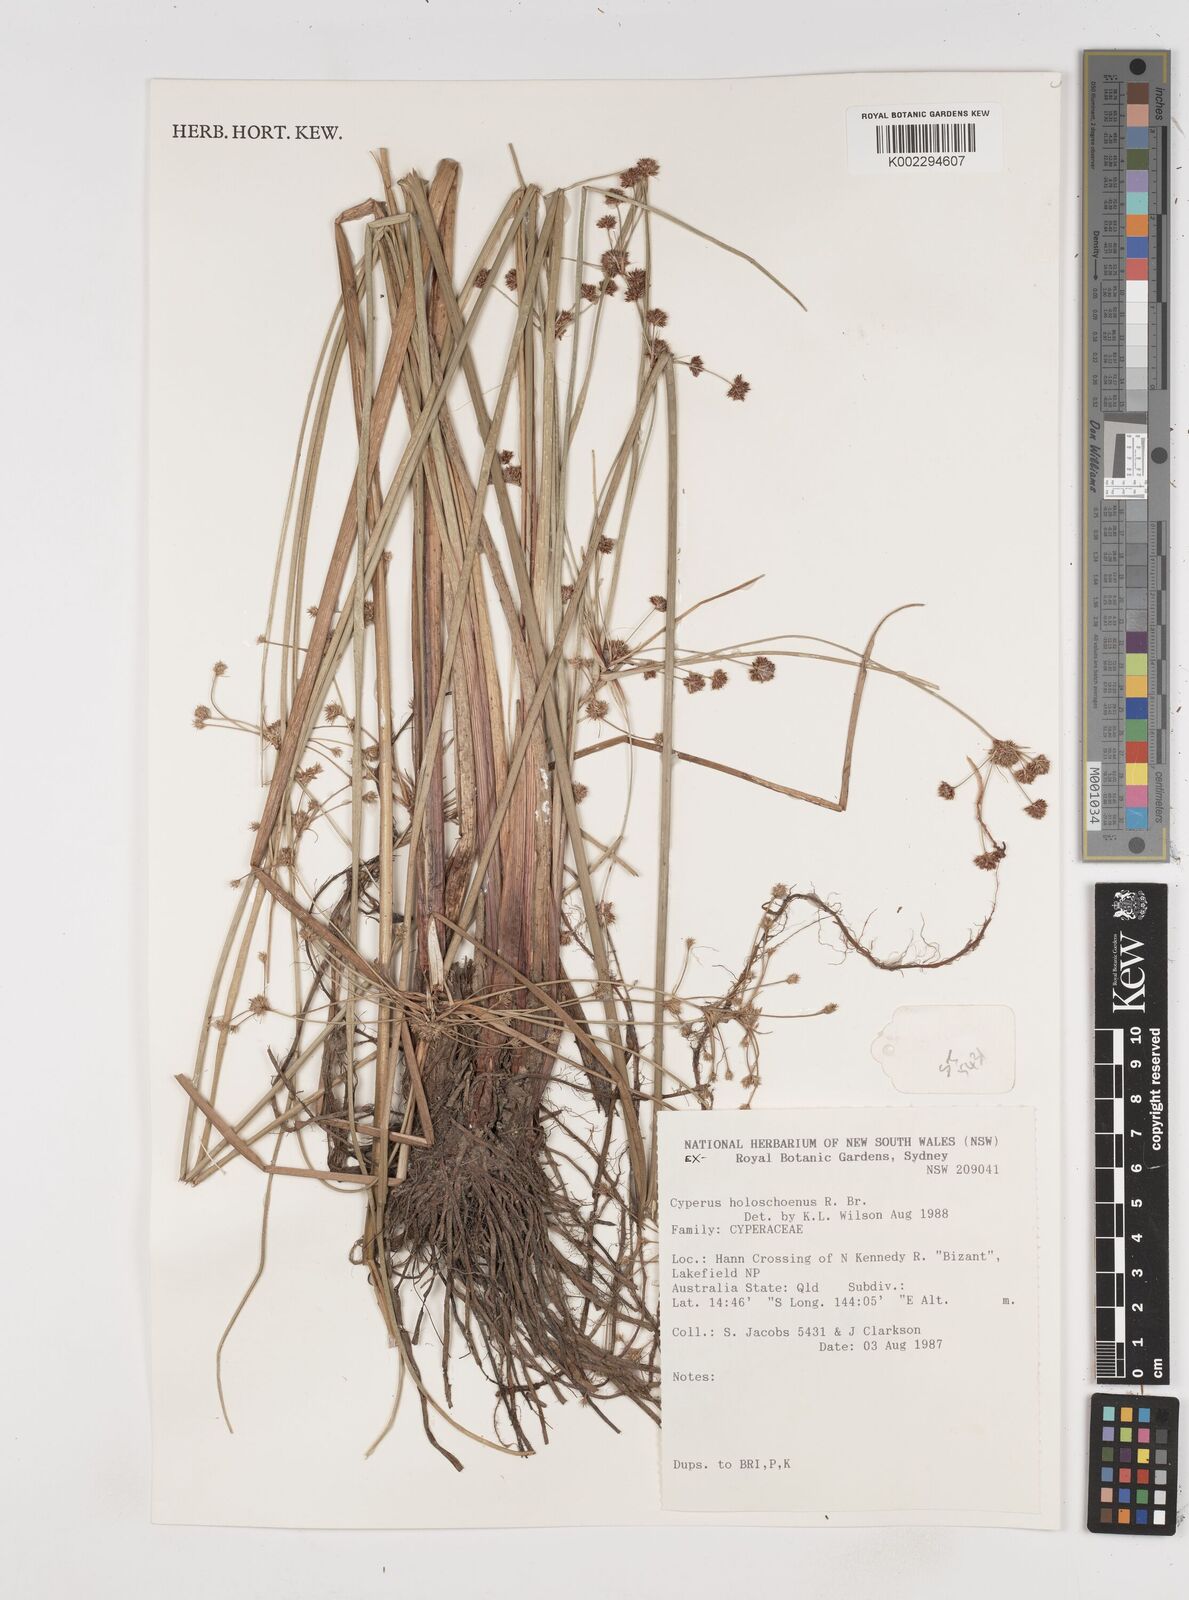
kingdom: Plantae
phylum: Tracheophyta
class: Liliopsida
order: Poales
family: Cyperaceae
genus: Cyperus
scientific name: Cyperus holoschoenus
